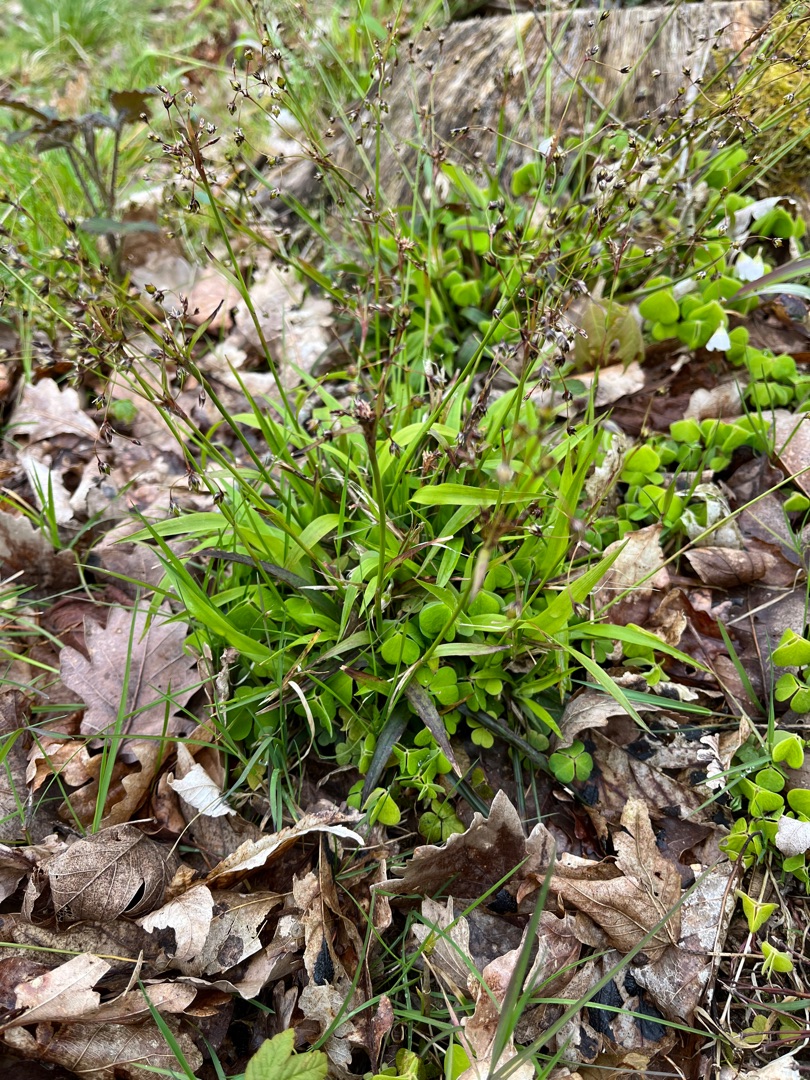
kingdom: Plantae
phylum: Tracheophyta
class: Liliopsida
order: Poales
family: Juncaceae
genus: Luzula
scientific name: Luzula pilosa
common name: Håret frytle
